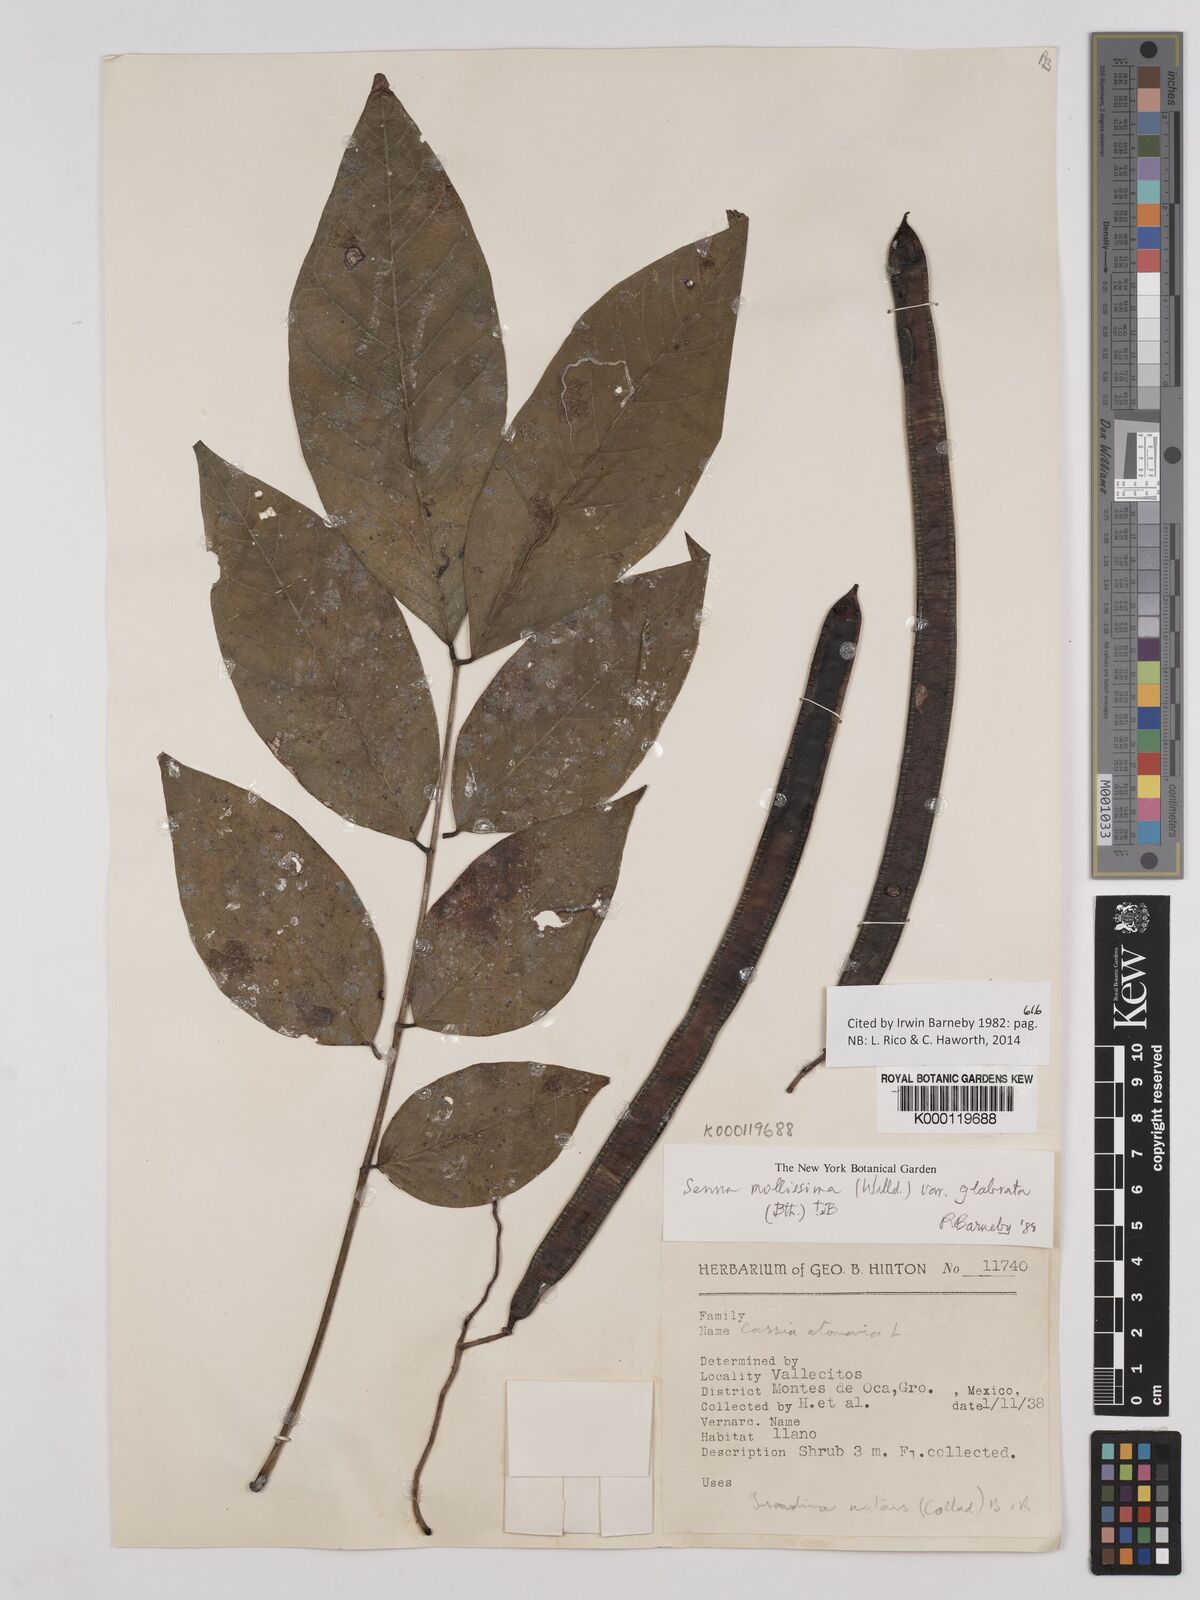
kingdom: Plantae
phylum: Tracheophyta
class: Magnoliopsida
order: Fabales
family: Fabaceae
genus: Senna
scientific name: Senna mollissima
